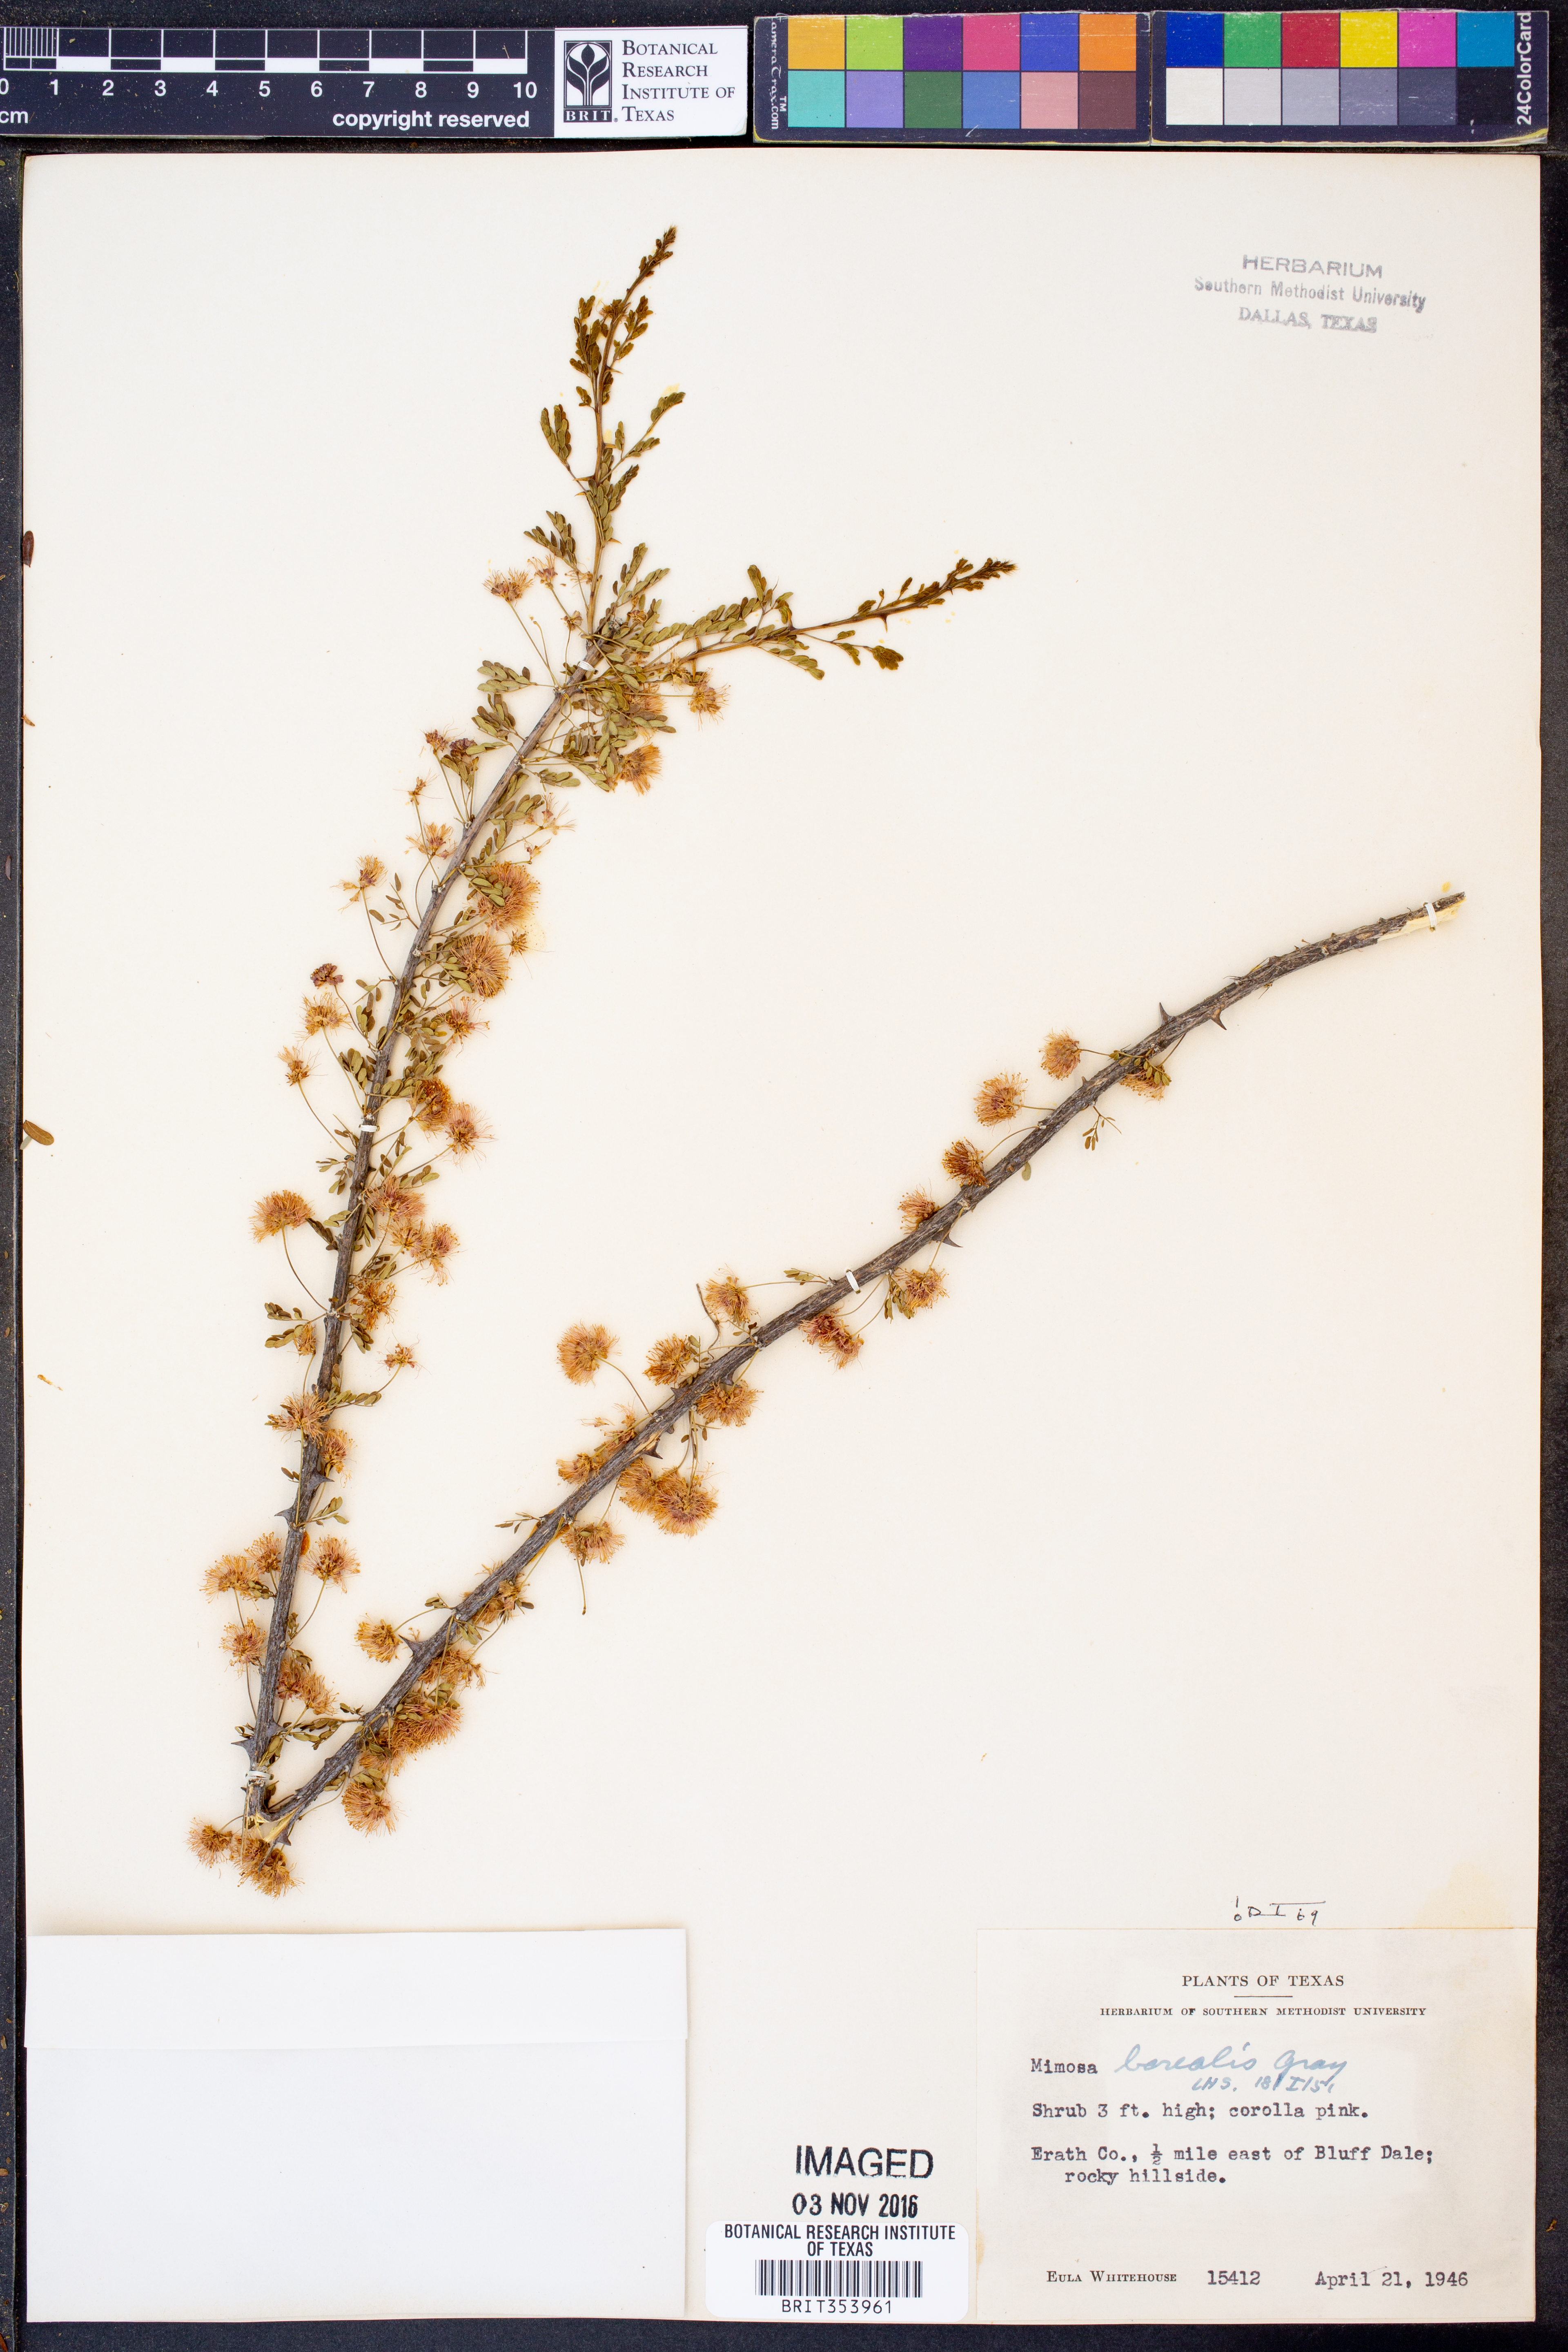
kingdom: Plantae
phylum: Tracheophyta
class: Magnoliopsida
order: Fabales
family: Fabaceae
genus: Mimosa
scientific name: Mimosa borealis
